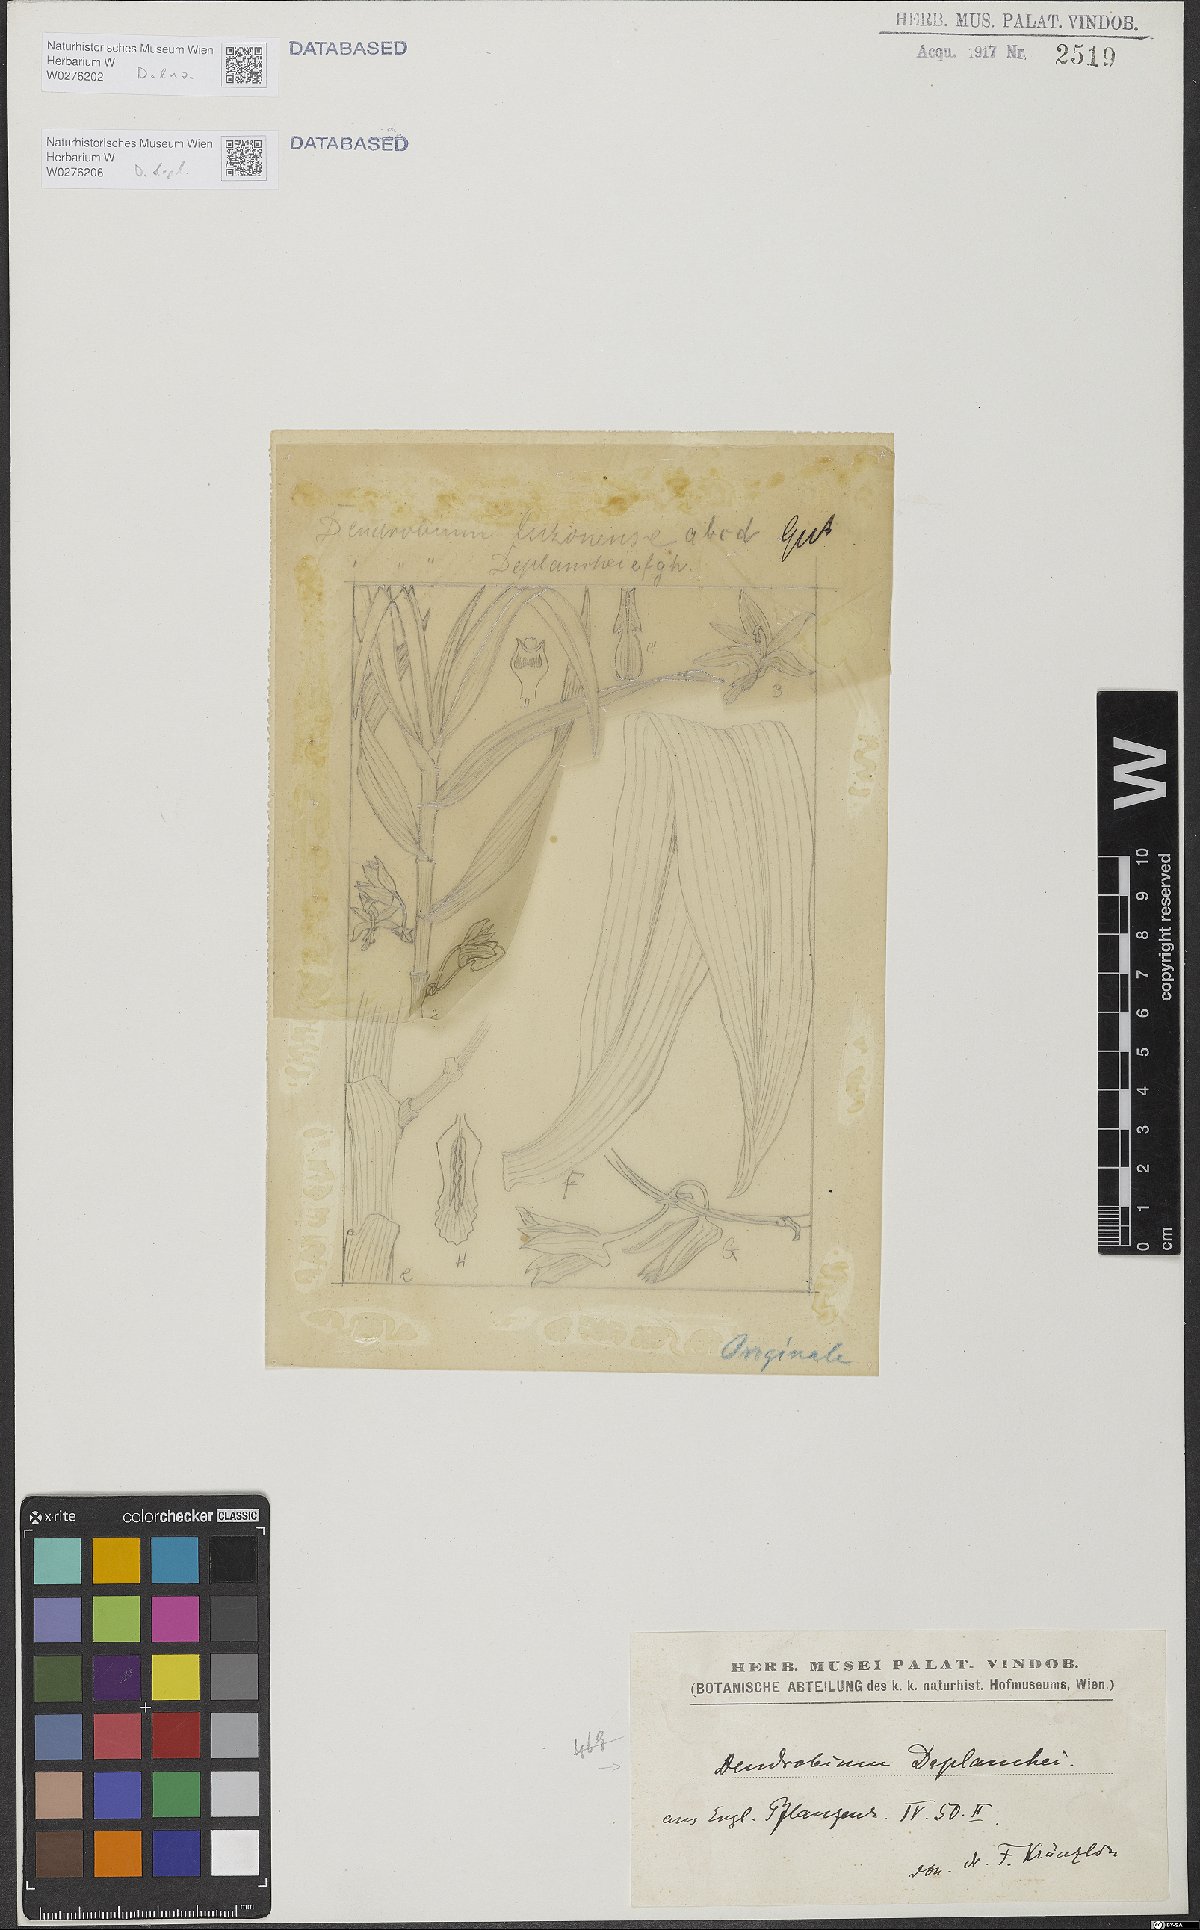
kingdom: Plantae
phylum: Tracheophyta
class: Liliopsida
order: Asparagales
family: Orchidaceae
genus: Dendrobium
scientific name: Dendrobium deplanchei
